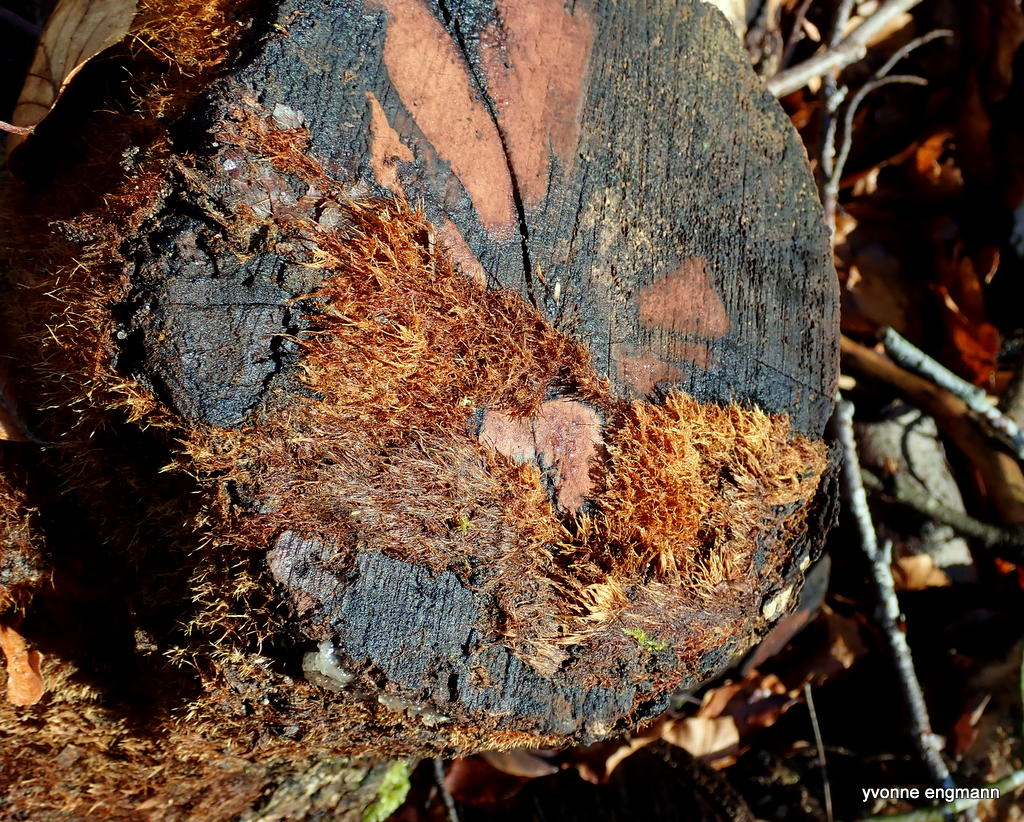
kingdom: Fungi
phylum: Basidiomycota
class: Agaricomycetes
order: Agaricales
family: Psathyrellaceae
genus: Ozonium
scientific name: Ozonium
